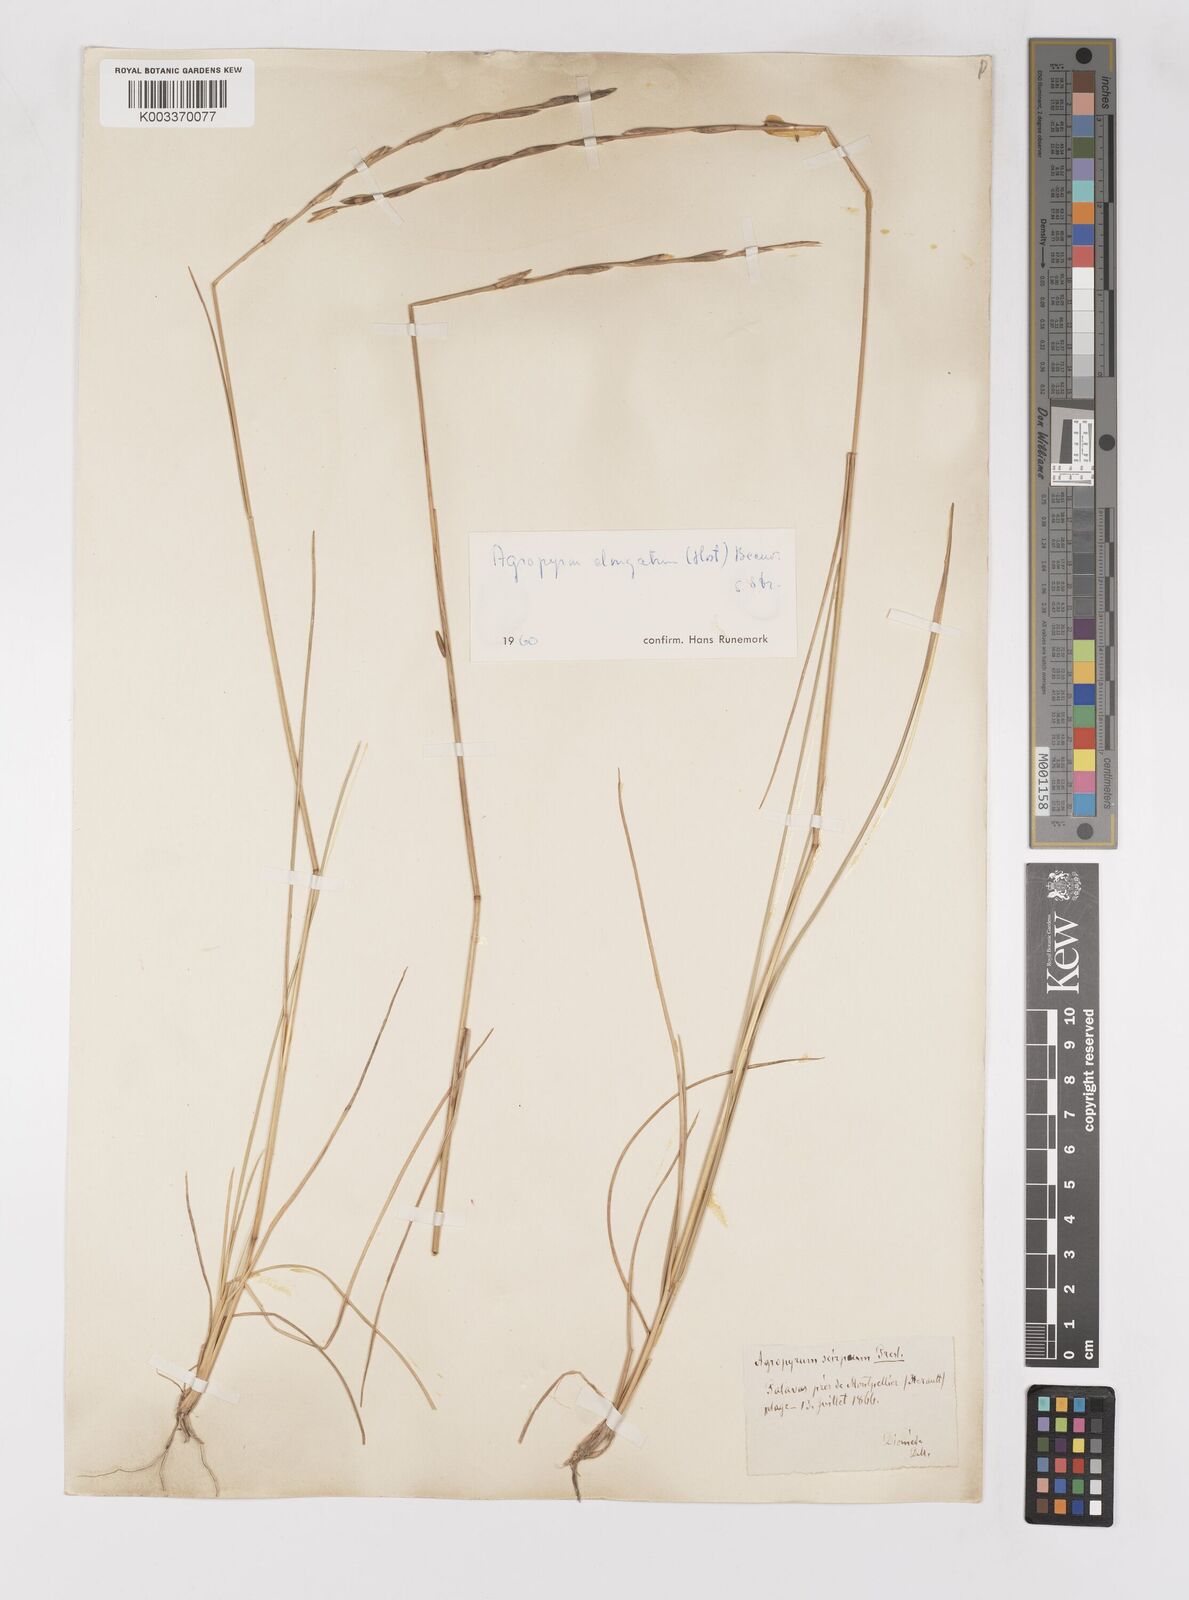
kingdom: Plantae
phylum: Tracheophyta
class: Liliopsida
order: Poales
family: Poaceae
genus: Thinopyrum
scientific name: Thinopyrum elongatum
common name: Tall wheatgrass
